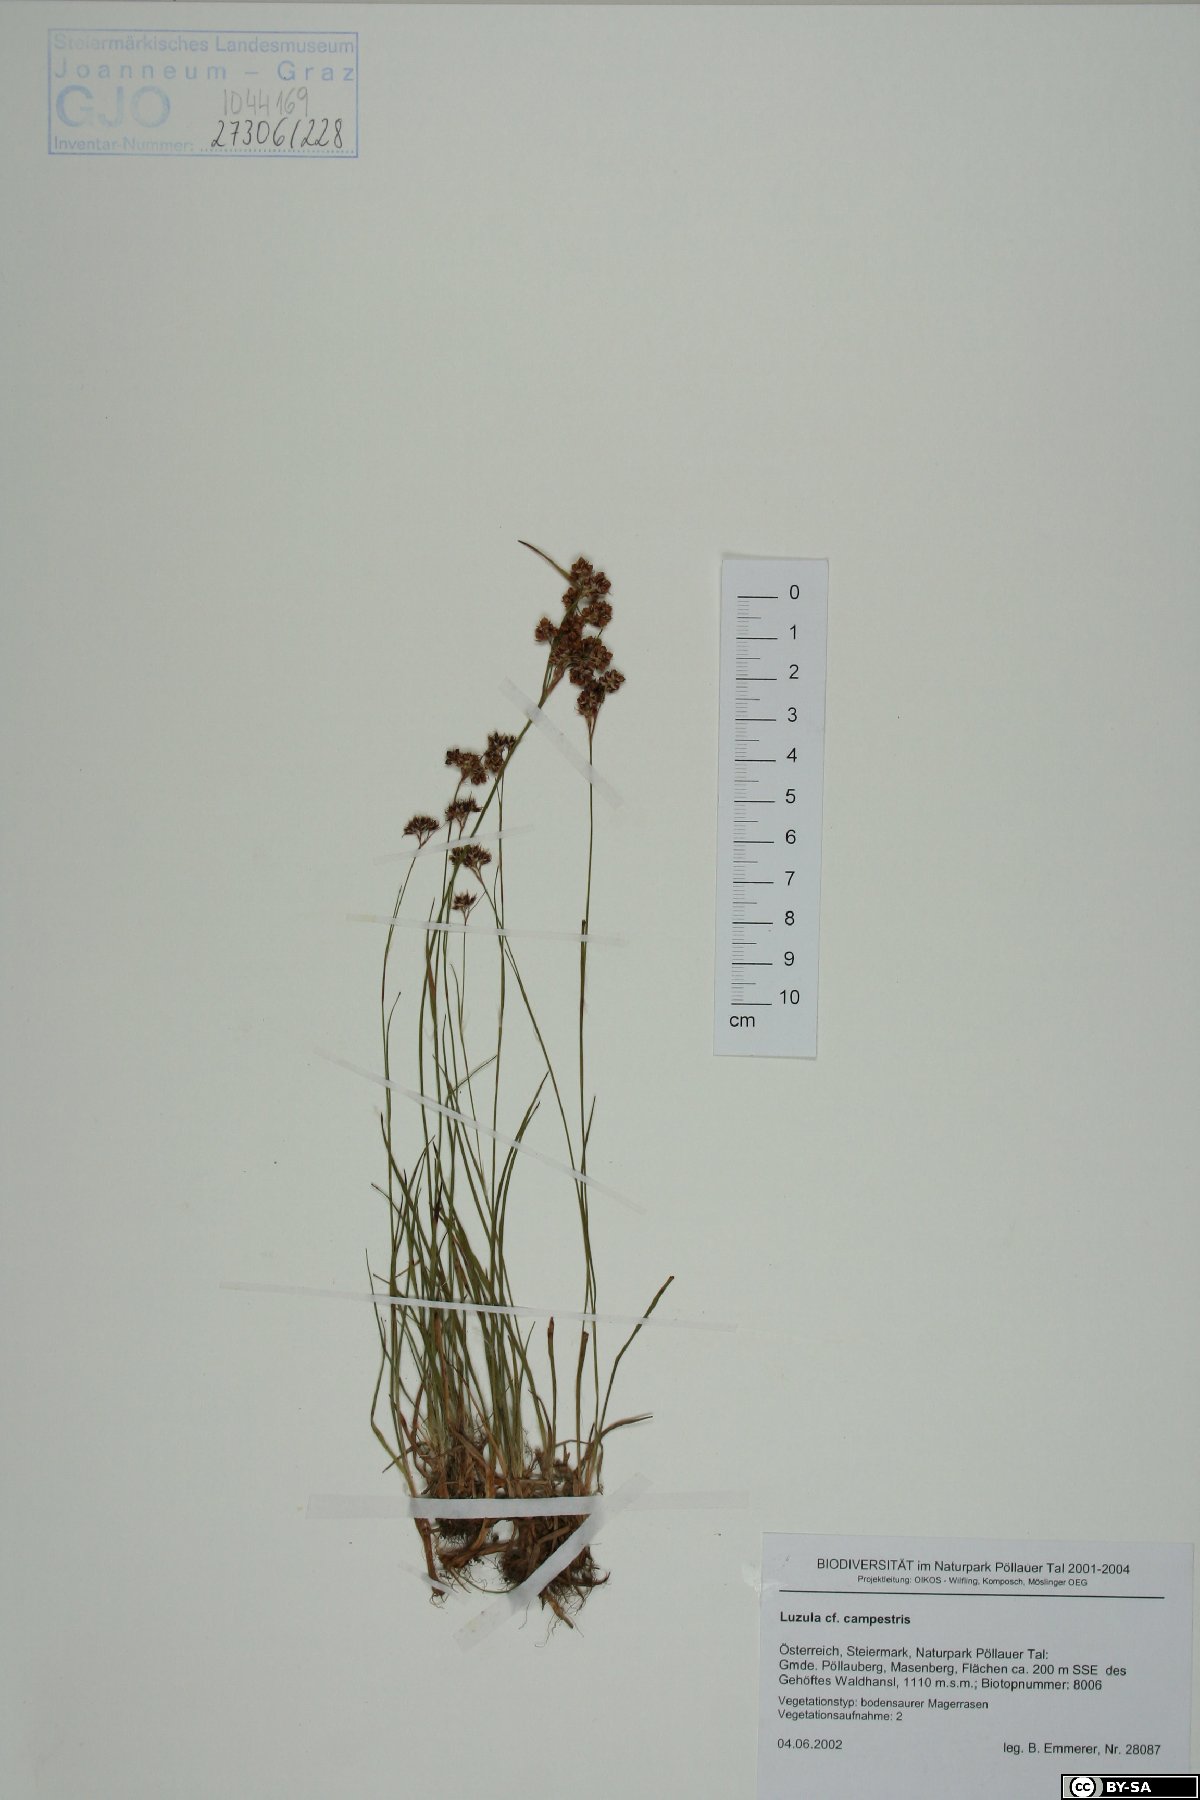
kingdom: Plantae
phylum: Tracheophyta
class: Liliopsida
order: Poales
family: Juncaceae
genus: Luzula
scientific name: Luzula campestris
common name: Field wood-rush
